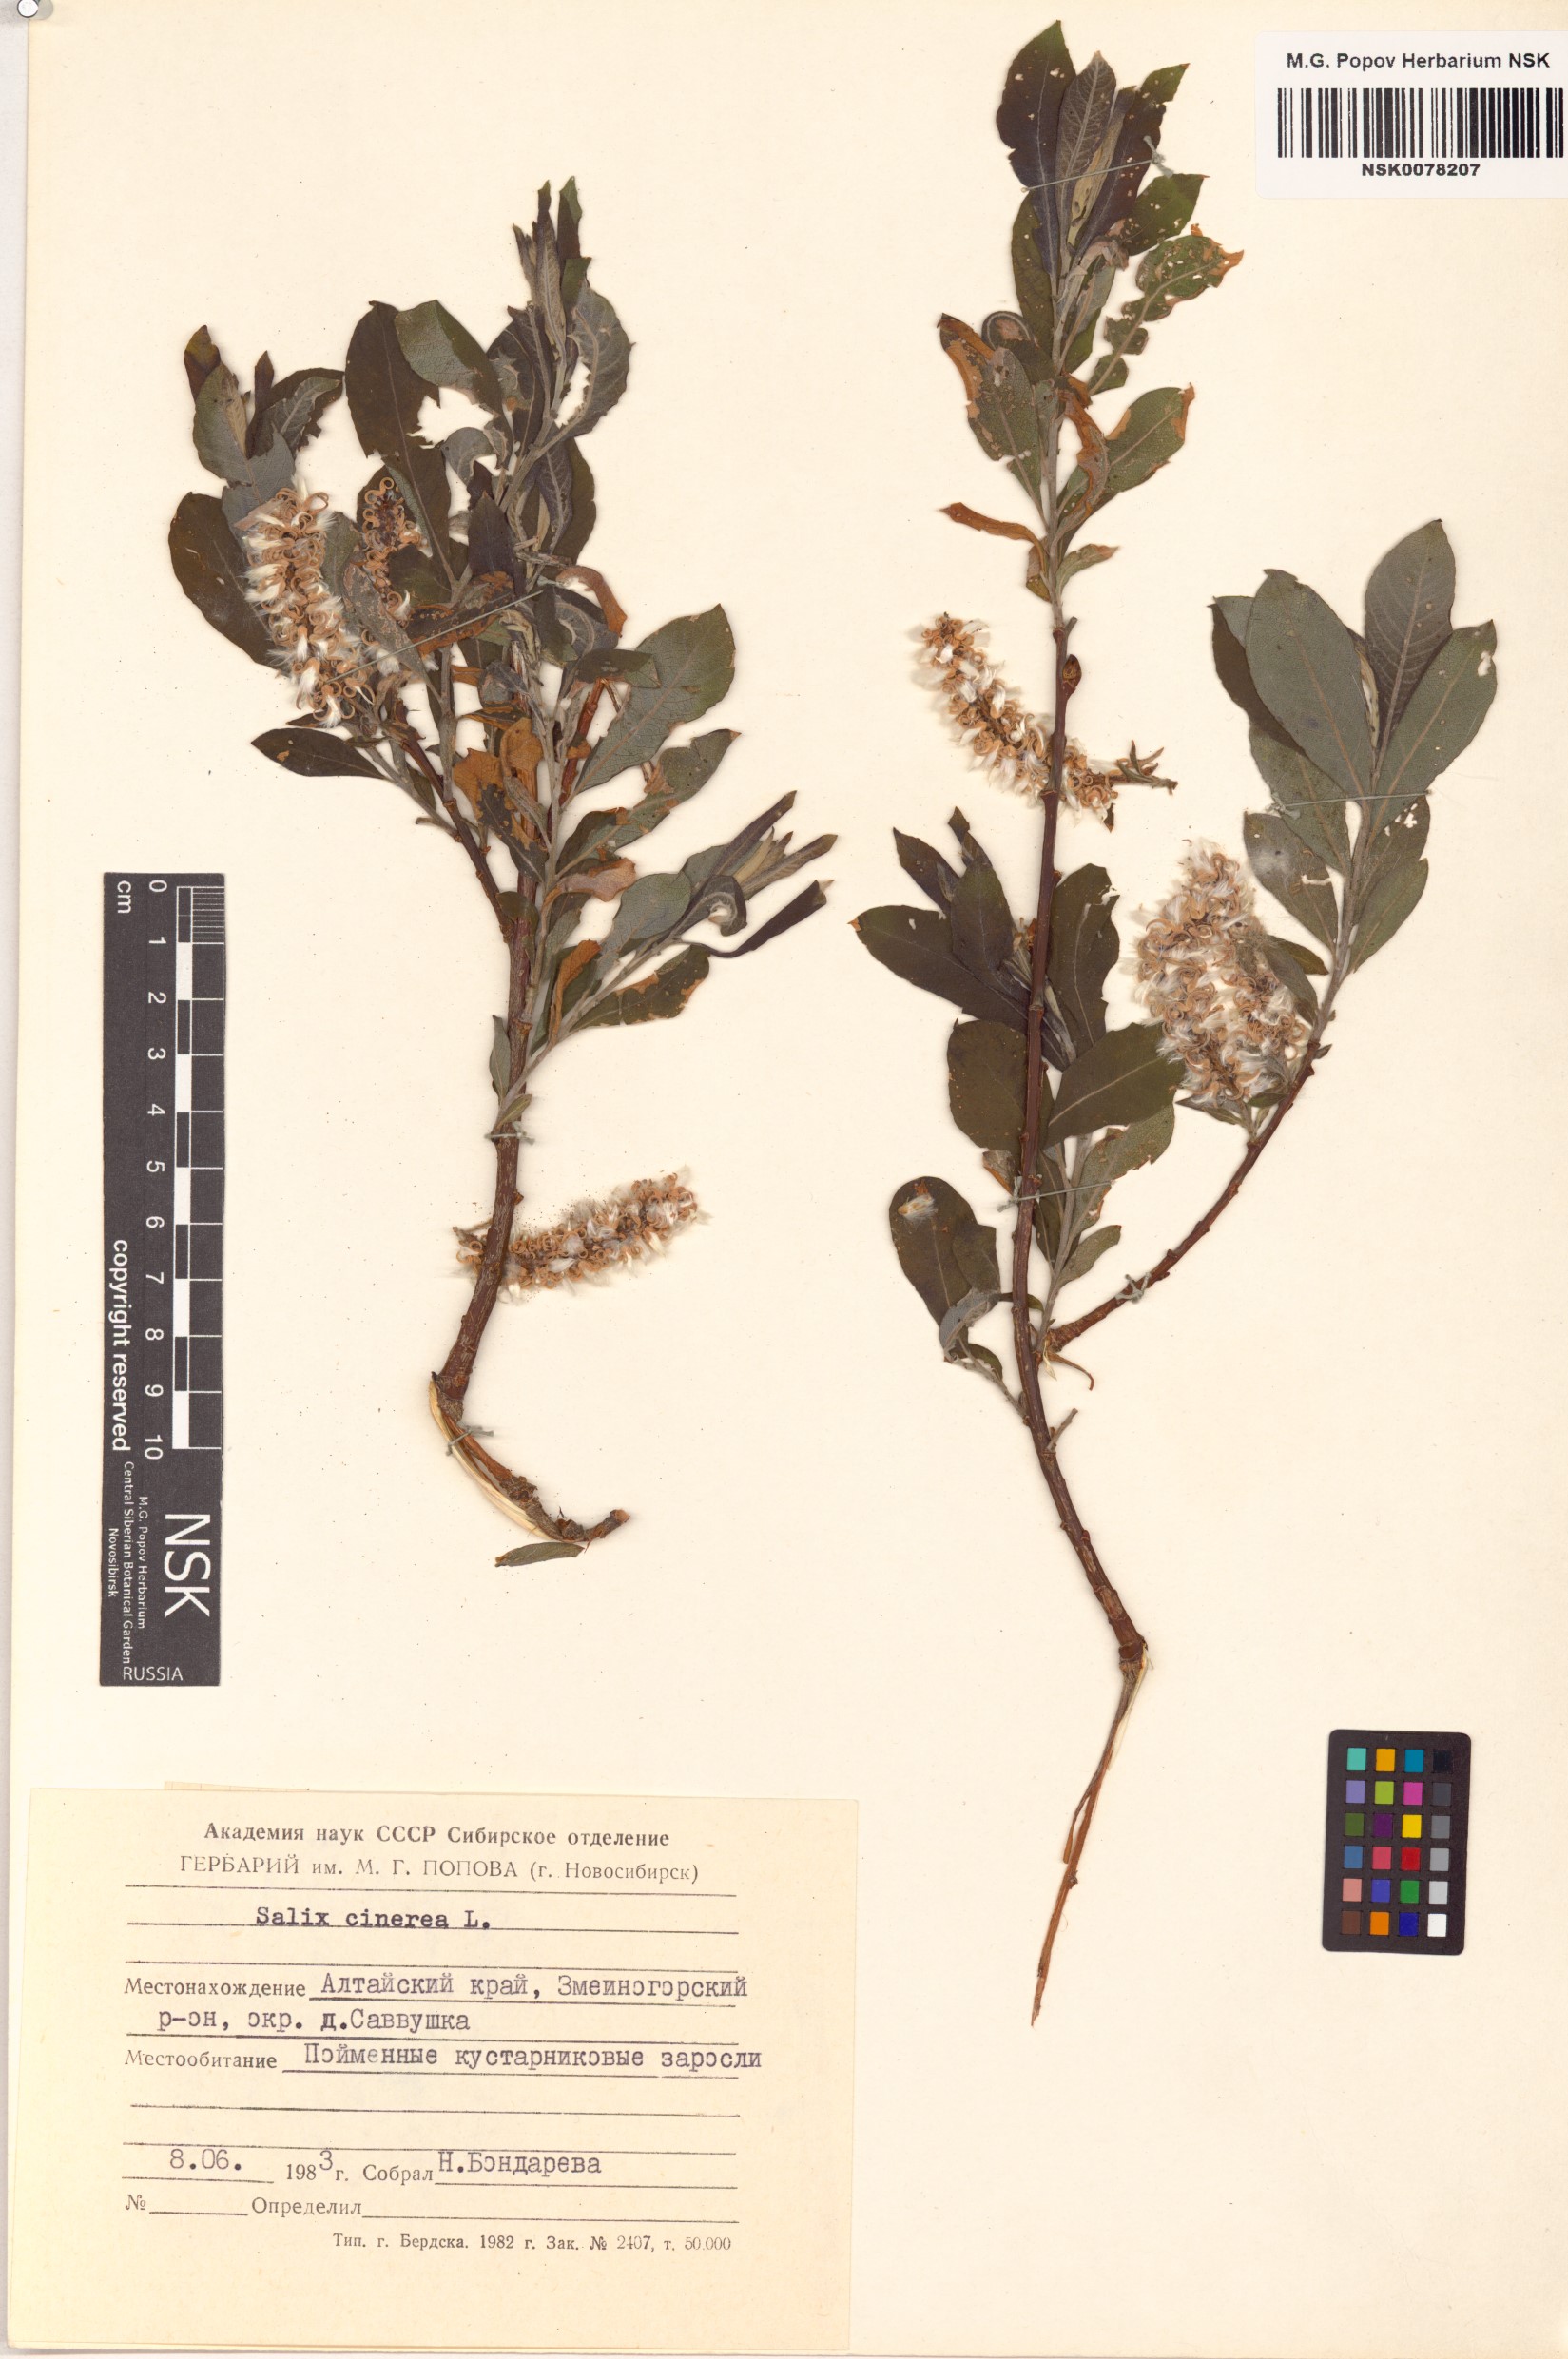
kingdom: Plantae
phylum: Tracheophyta
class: Magnoliopsida
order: Malpighiales
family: Salicaceae
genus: Salix
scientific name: Salix cinerea
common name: Common sallow
